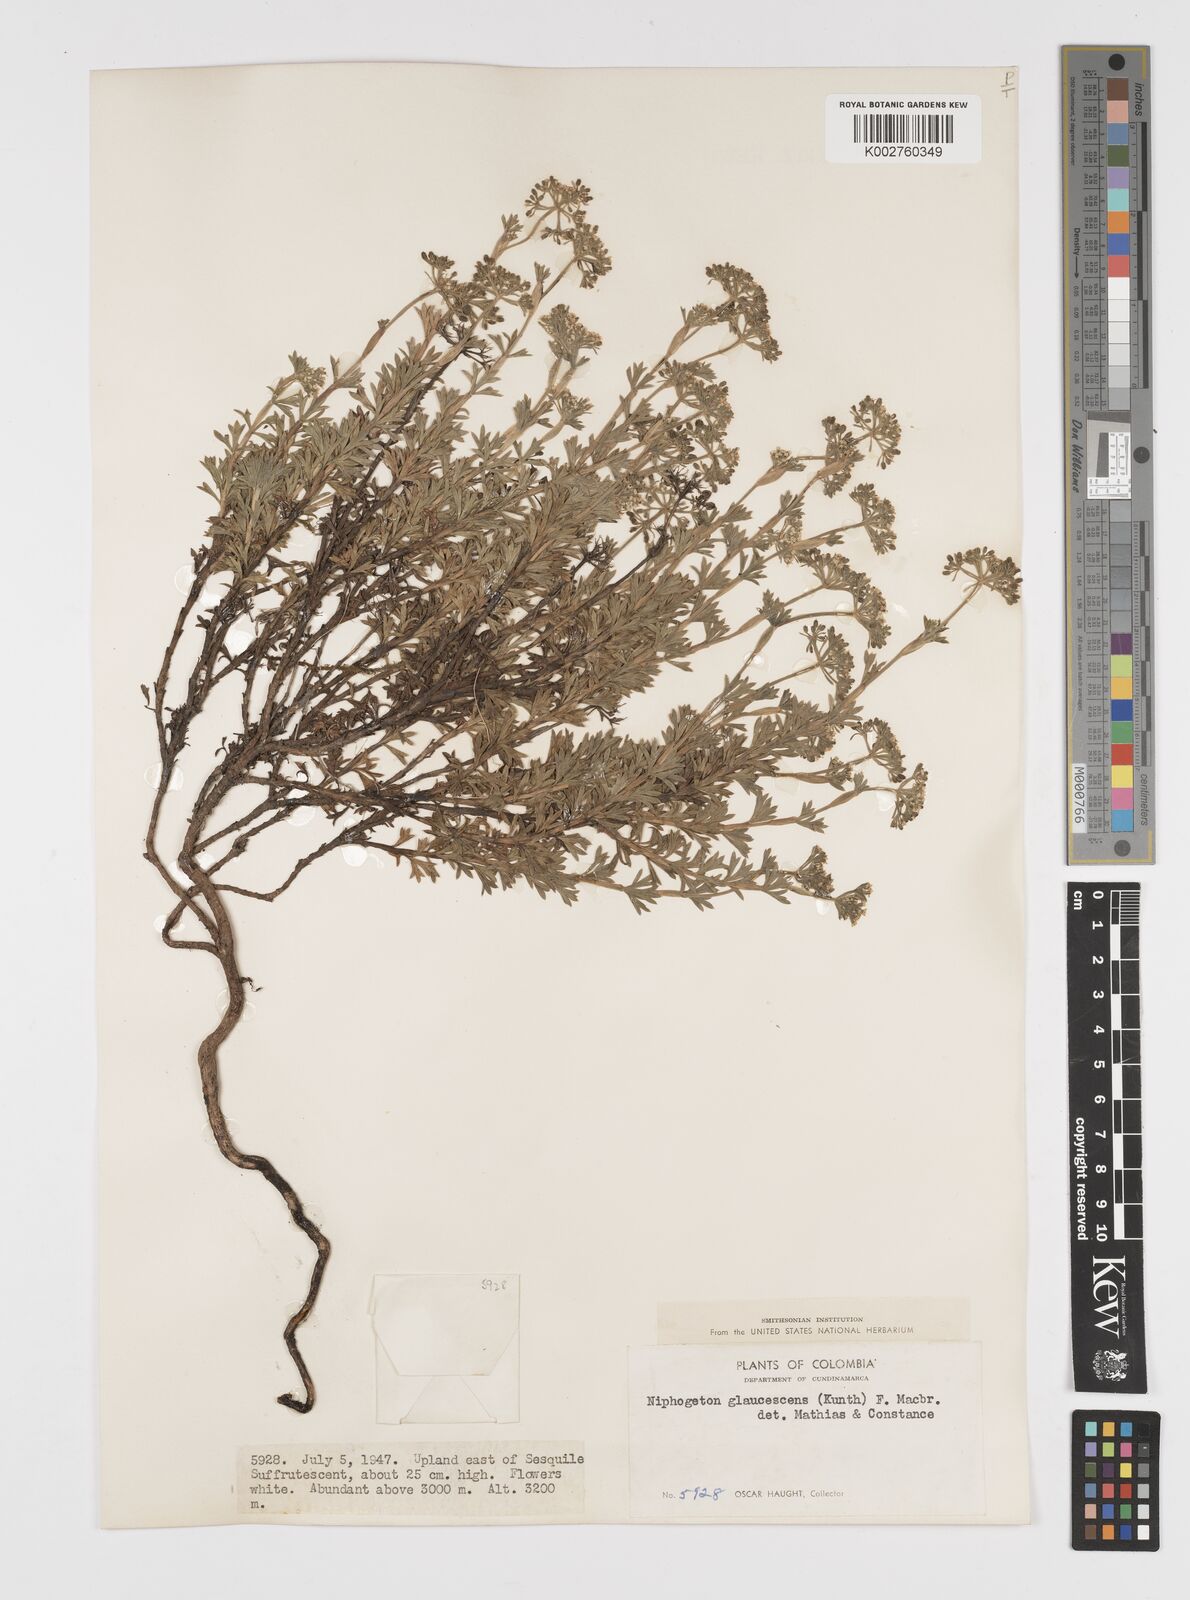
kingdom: Plantae
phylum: Tracheophyta
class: Magnoliopsida
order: Apiales
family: Apiaceae
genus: Niphogeton
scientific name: Niphogeton glaucescens
